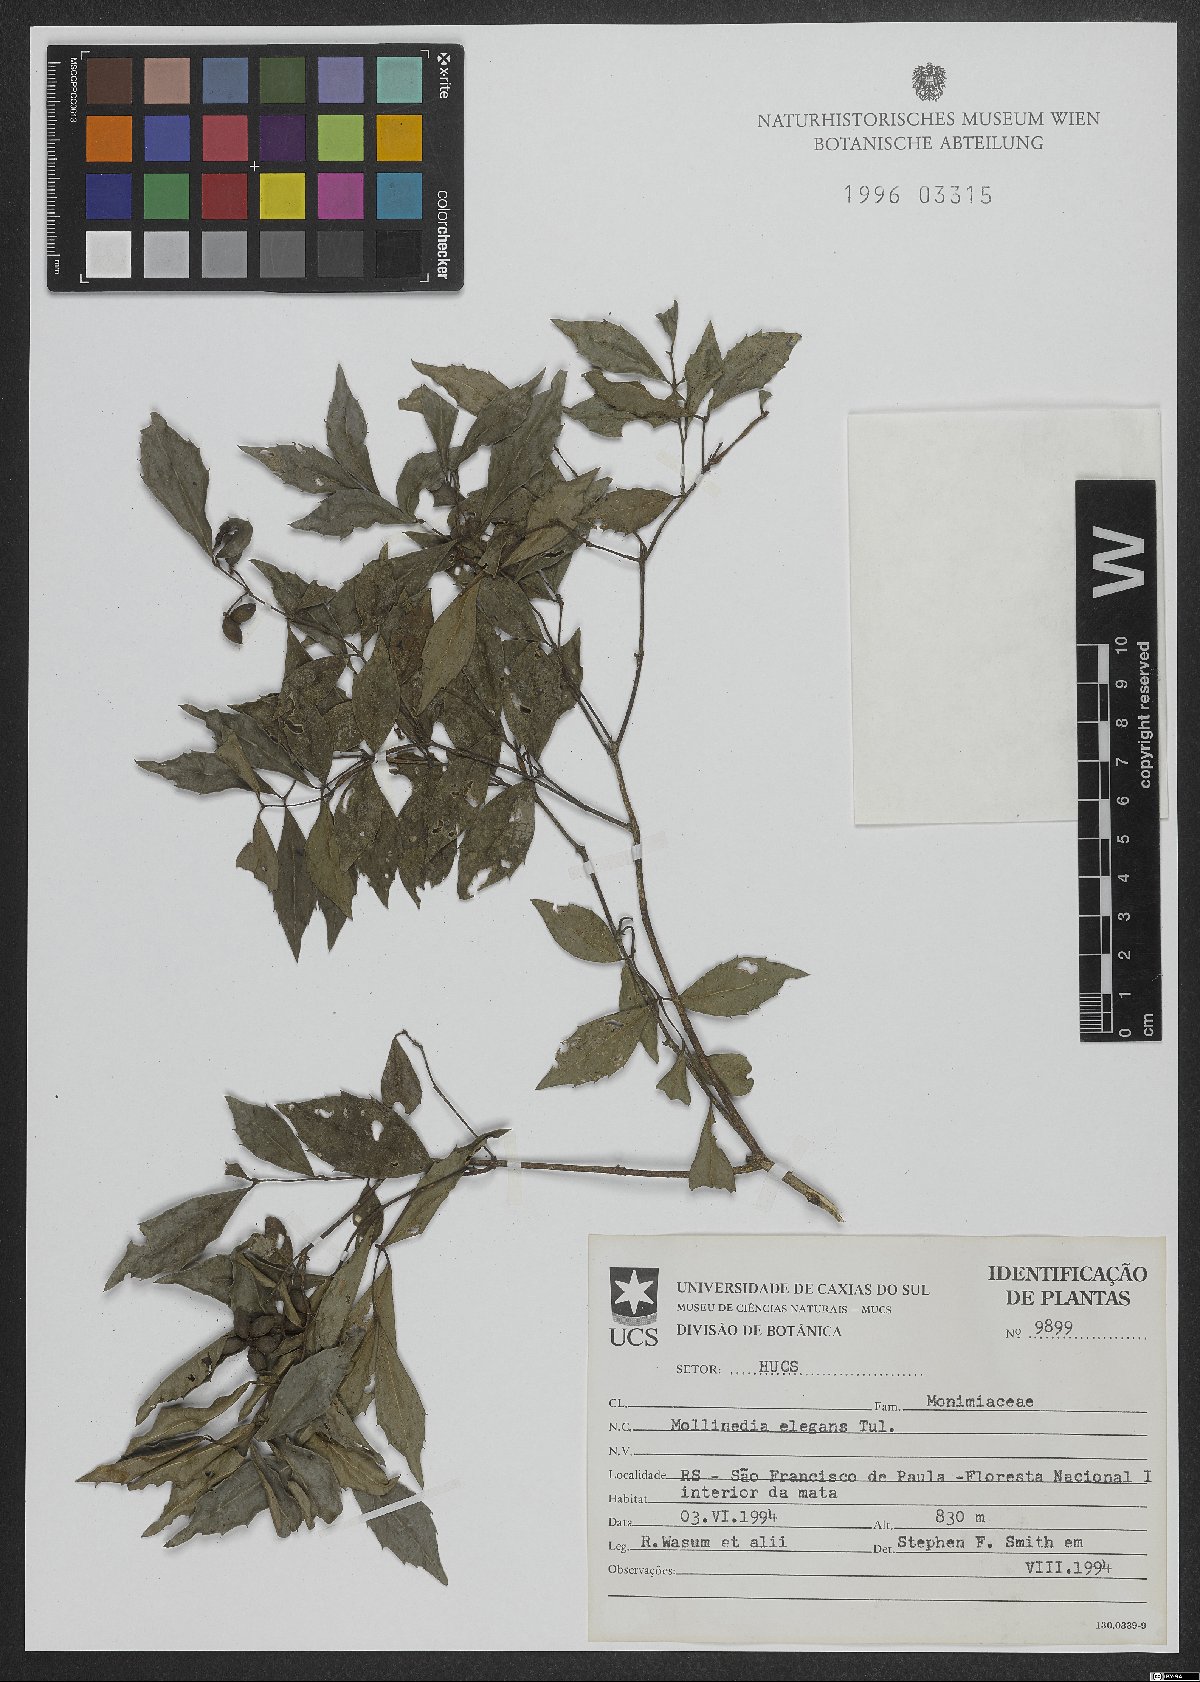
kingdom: Plantae
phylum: Tracheophyta
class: Magnoliopsida
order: Laurales
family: Monimiaceae
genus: Mollinedia
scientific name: Mollinedia elegans
